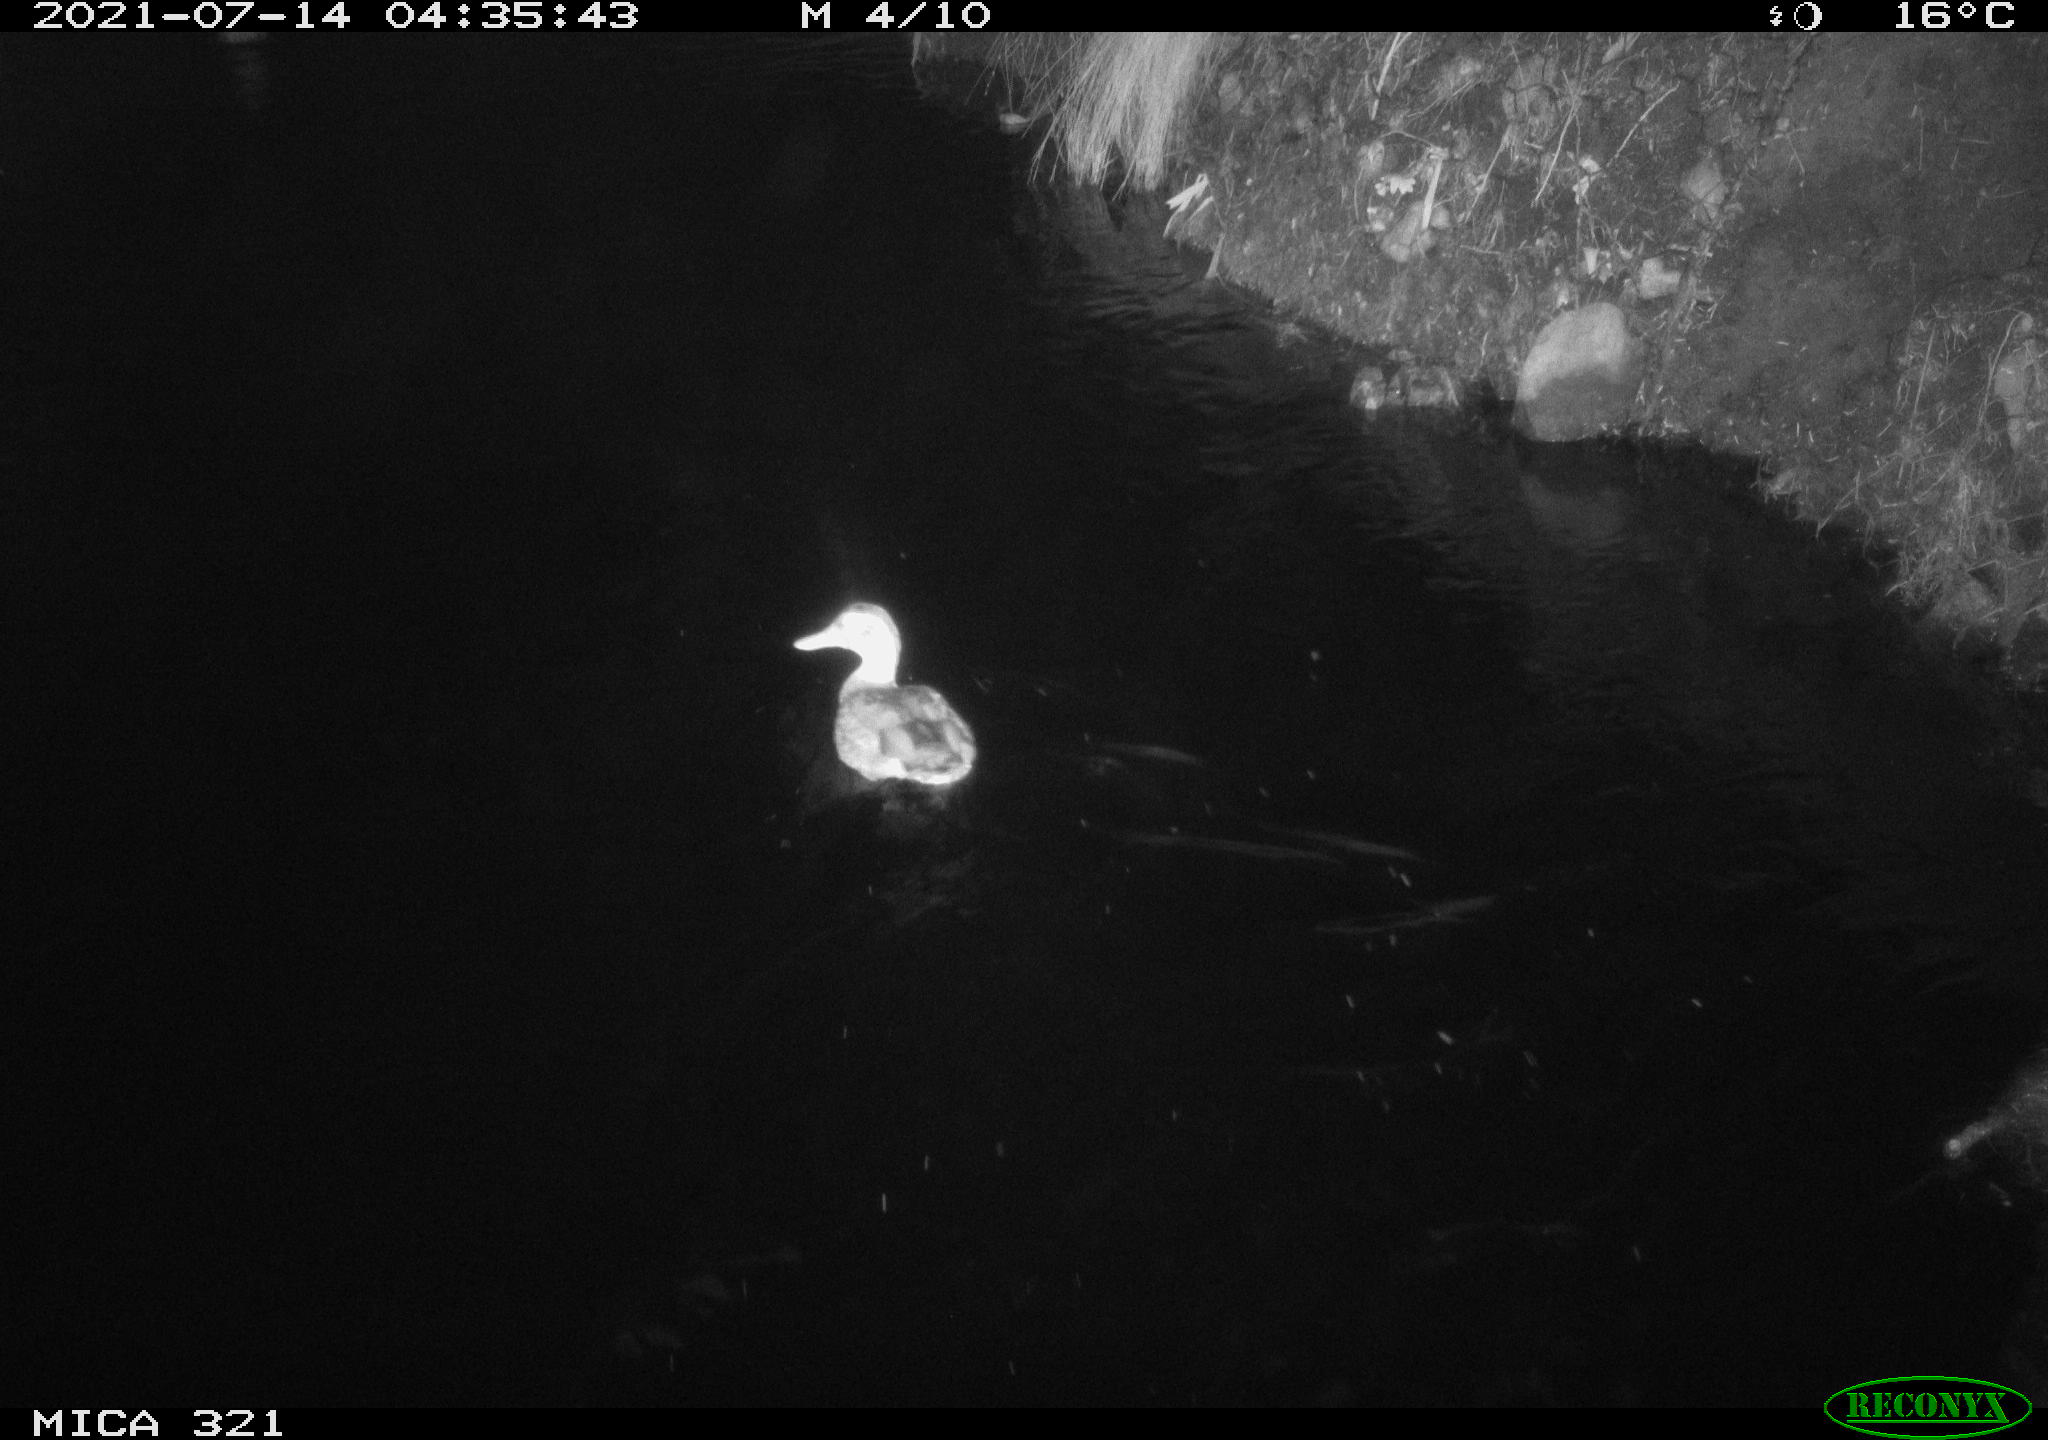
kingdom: Animalia
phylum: Chordata
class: Aves
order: Anseriformes
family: Anatidae
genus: Anas
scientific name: Anas platyrhynchos
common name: Mallard
